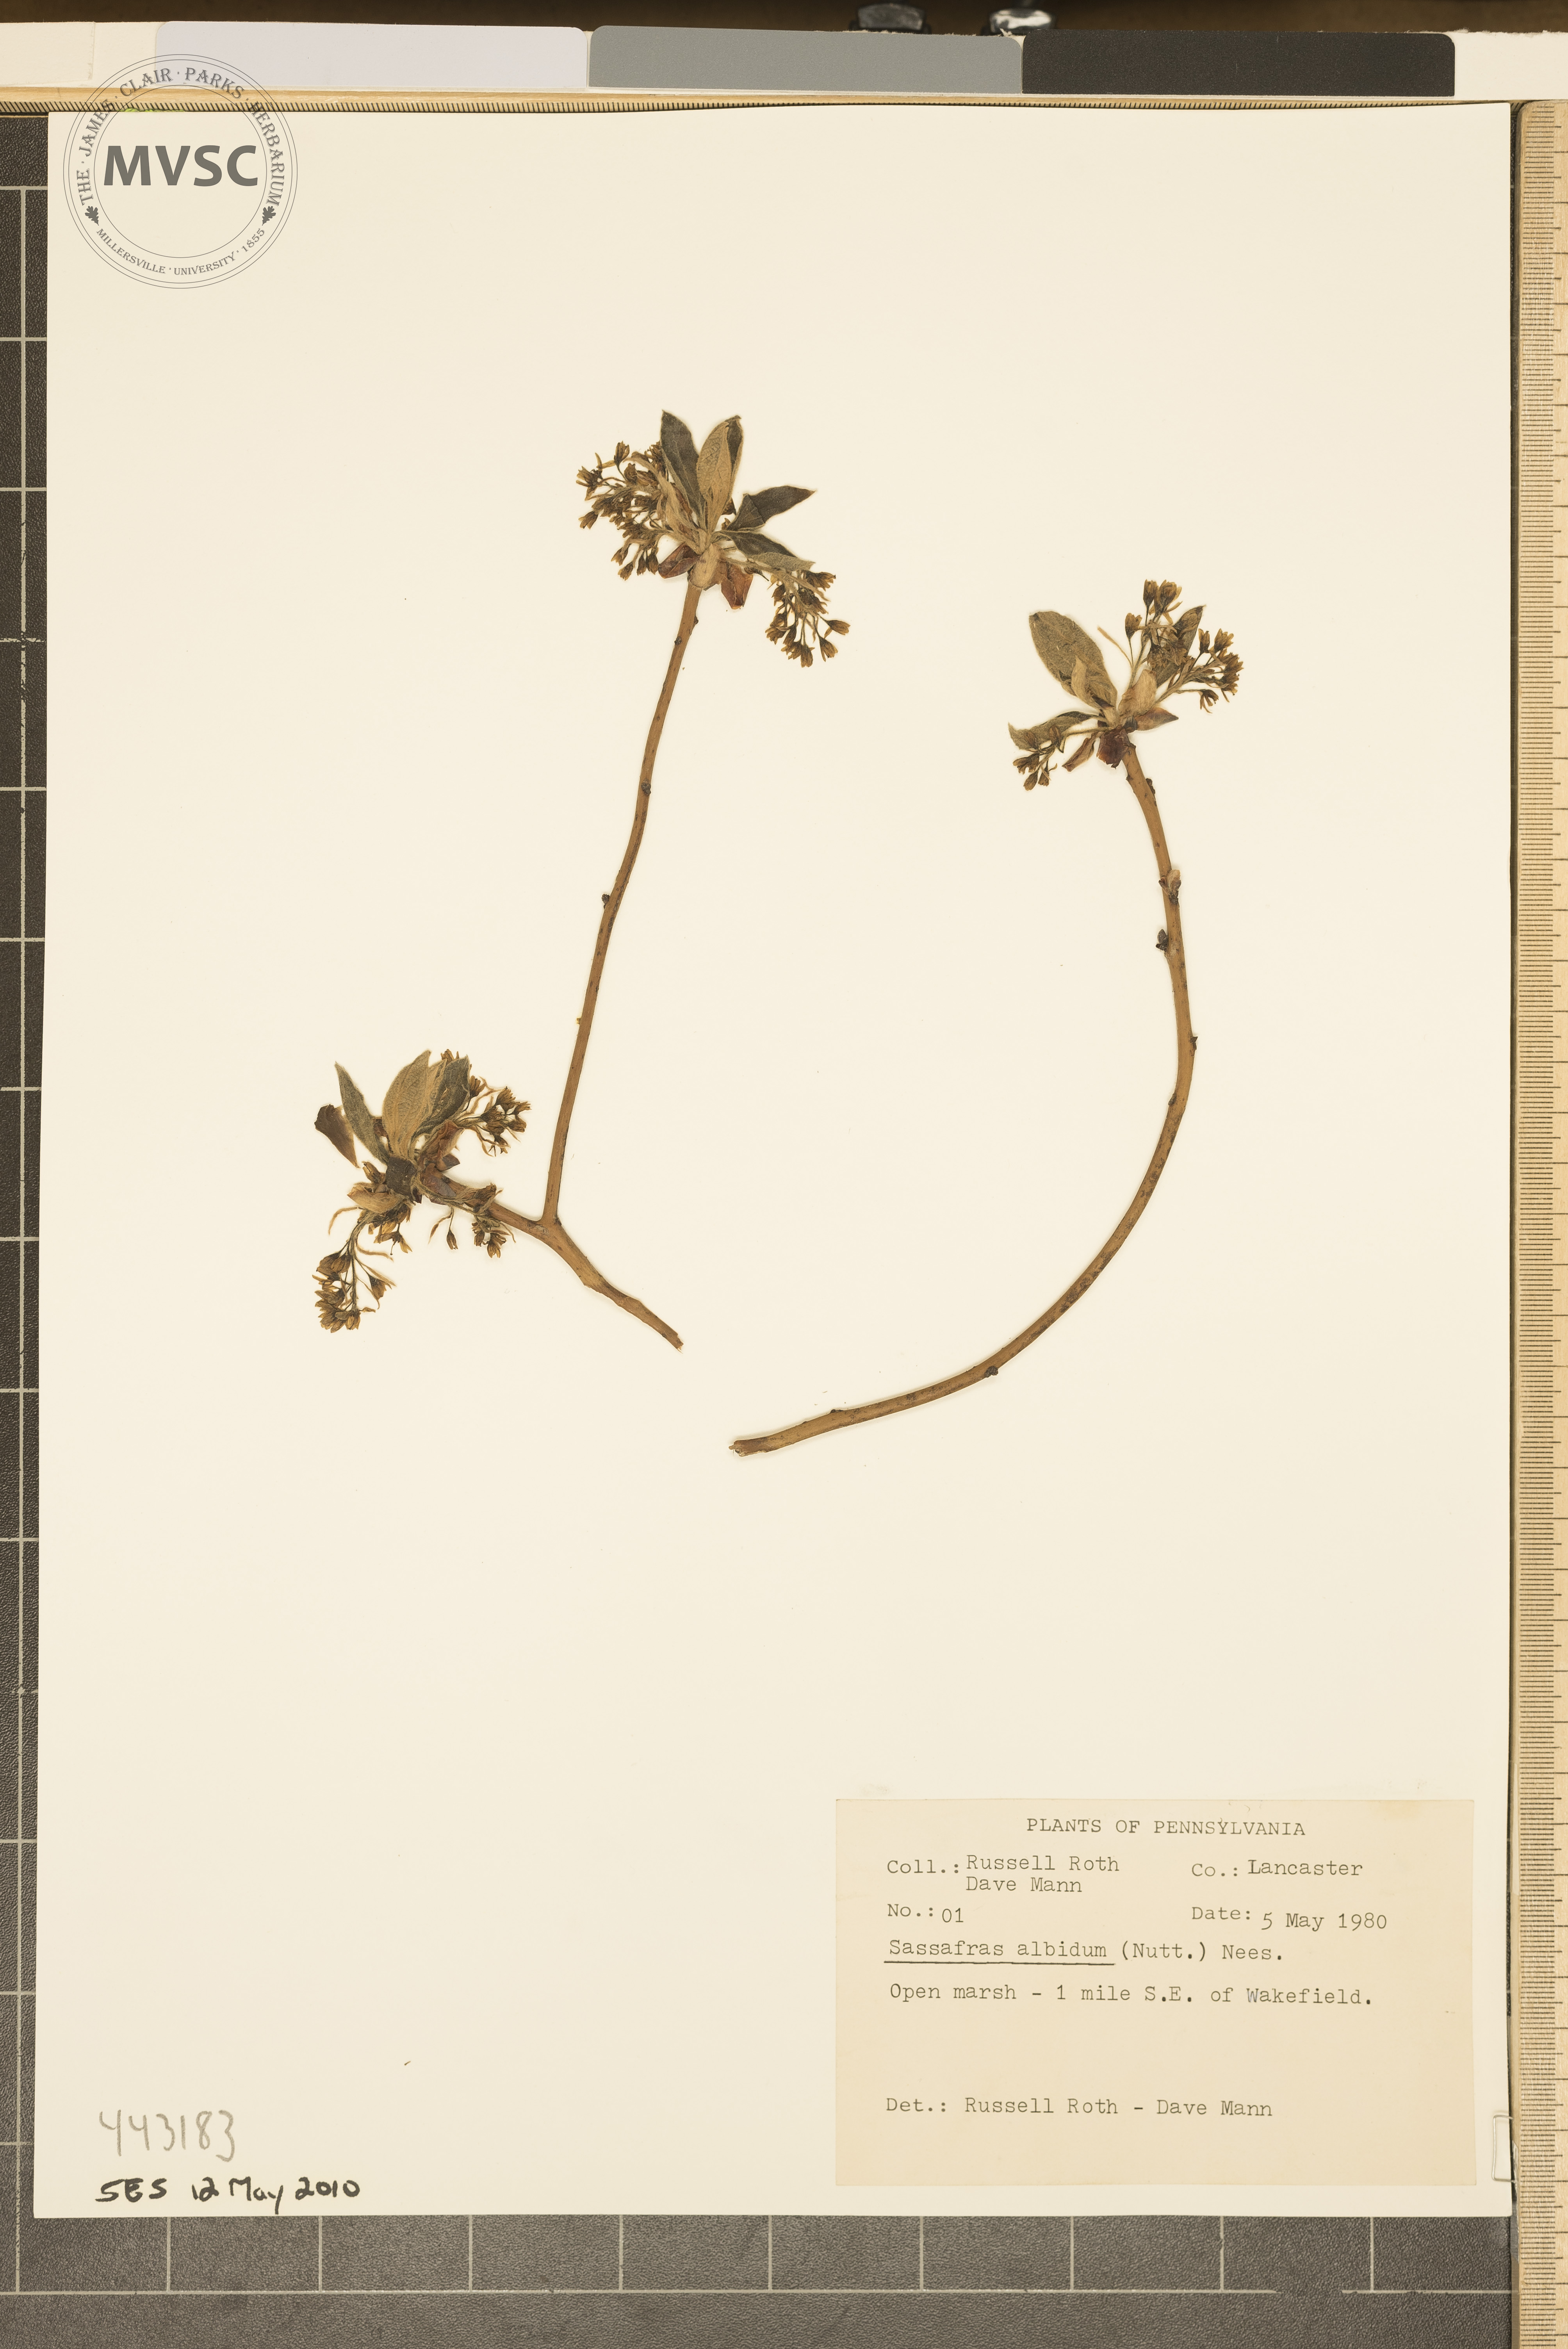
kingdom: Plantae
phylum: Tracheophyta
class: Magnoliopsida
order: Laurales
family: Lauraceae
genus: Sassafras
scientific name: Sassafras albidum
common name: Sassafras
